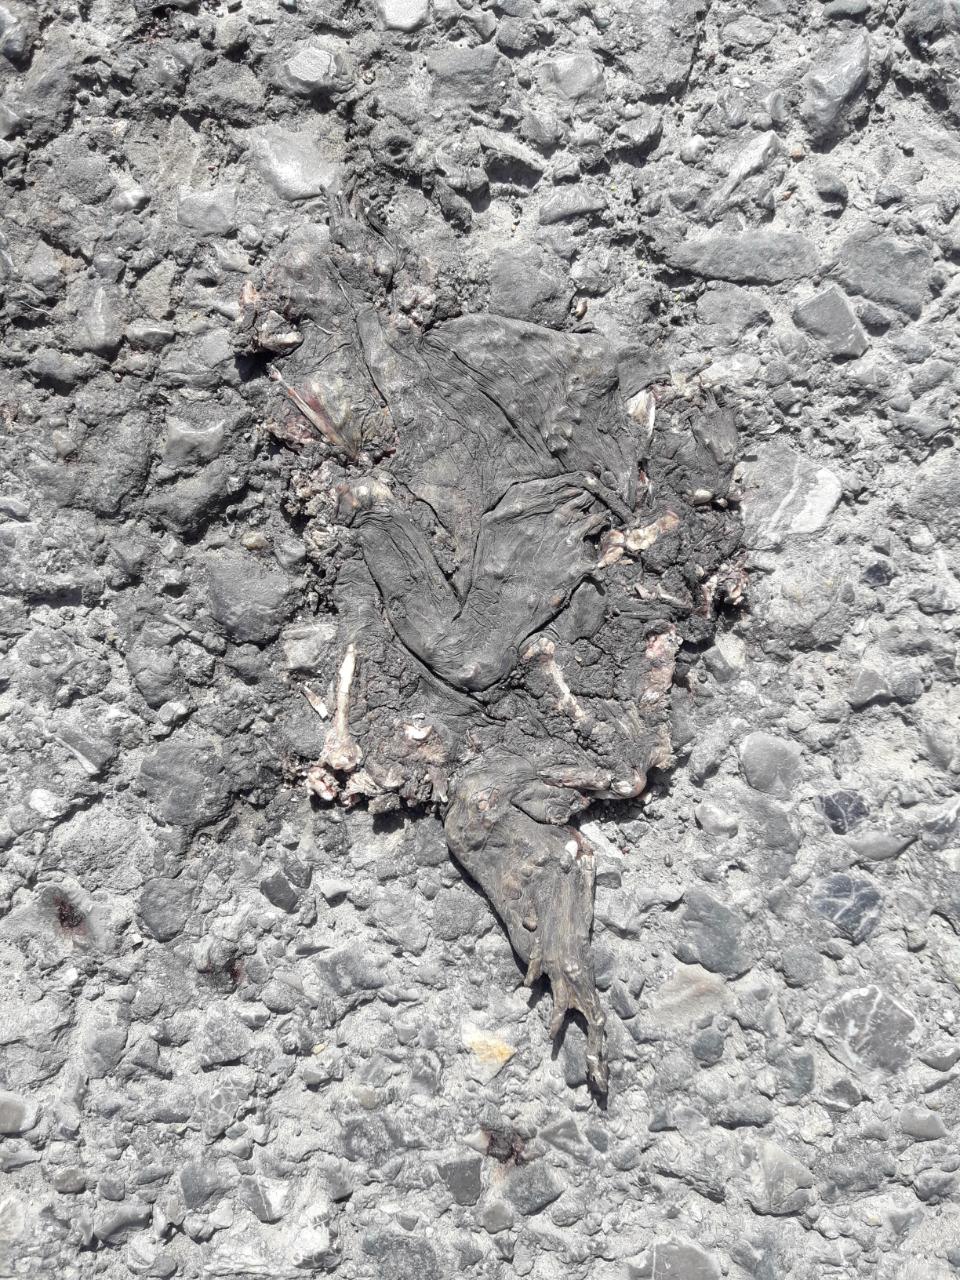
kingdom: Animalia
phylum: Chordata
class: Amphibia
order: Anura
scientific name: Anura
